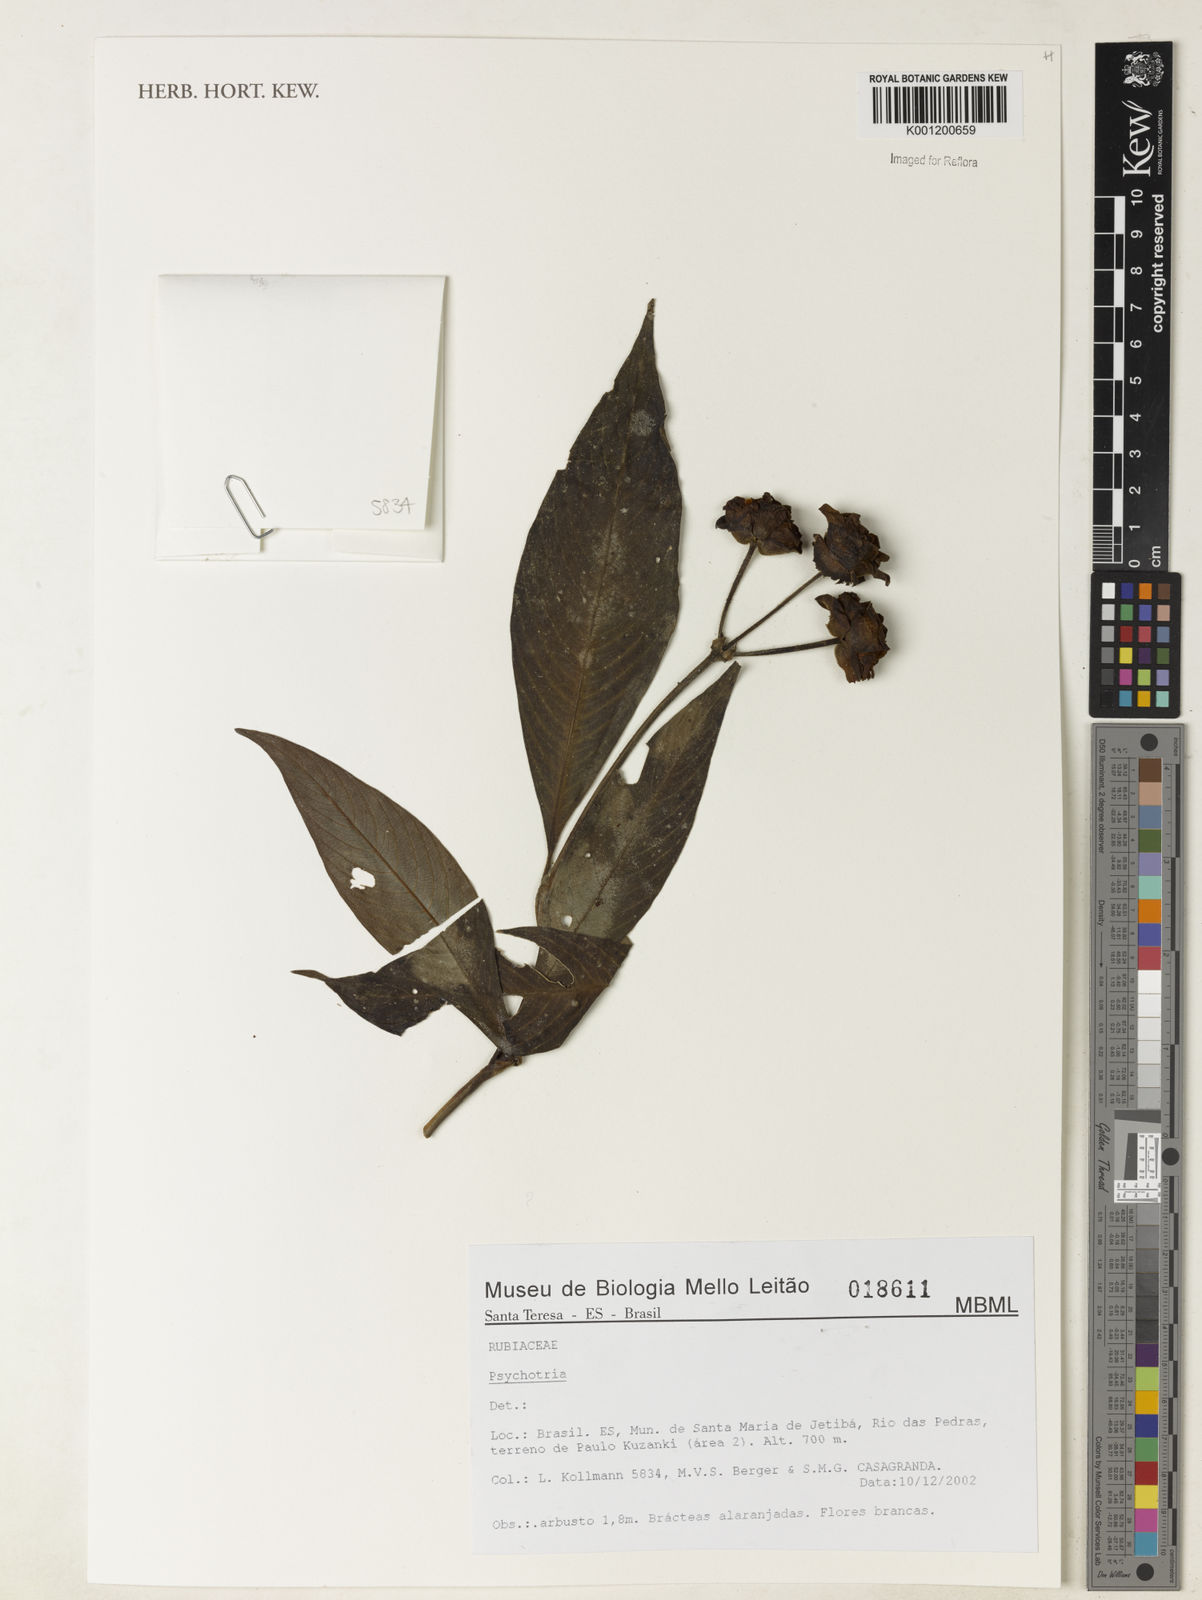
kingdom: Plantae
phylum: Tracheophyta
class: Magnoliopsida
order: Gentianales
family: Rubiaceae
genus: Psychotria
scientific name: Psychotria
